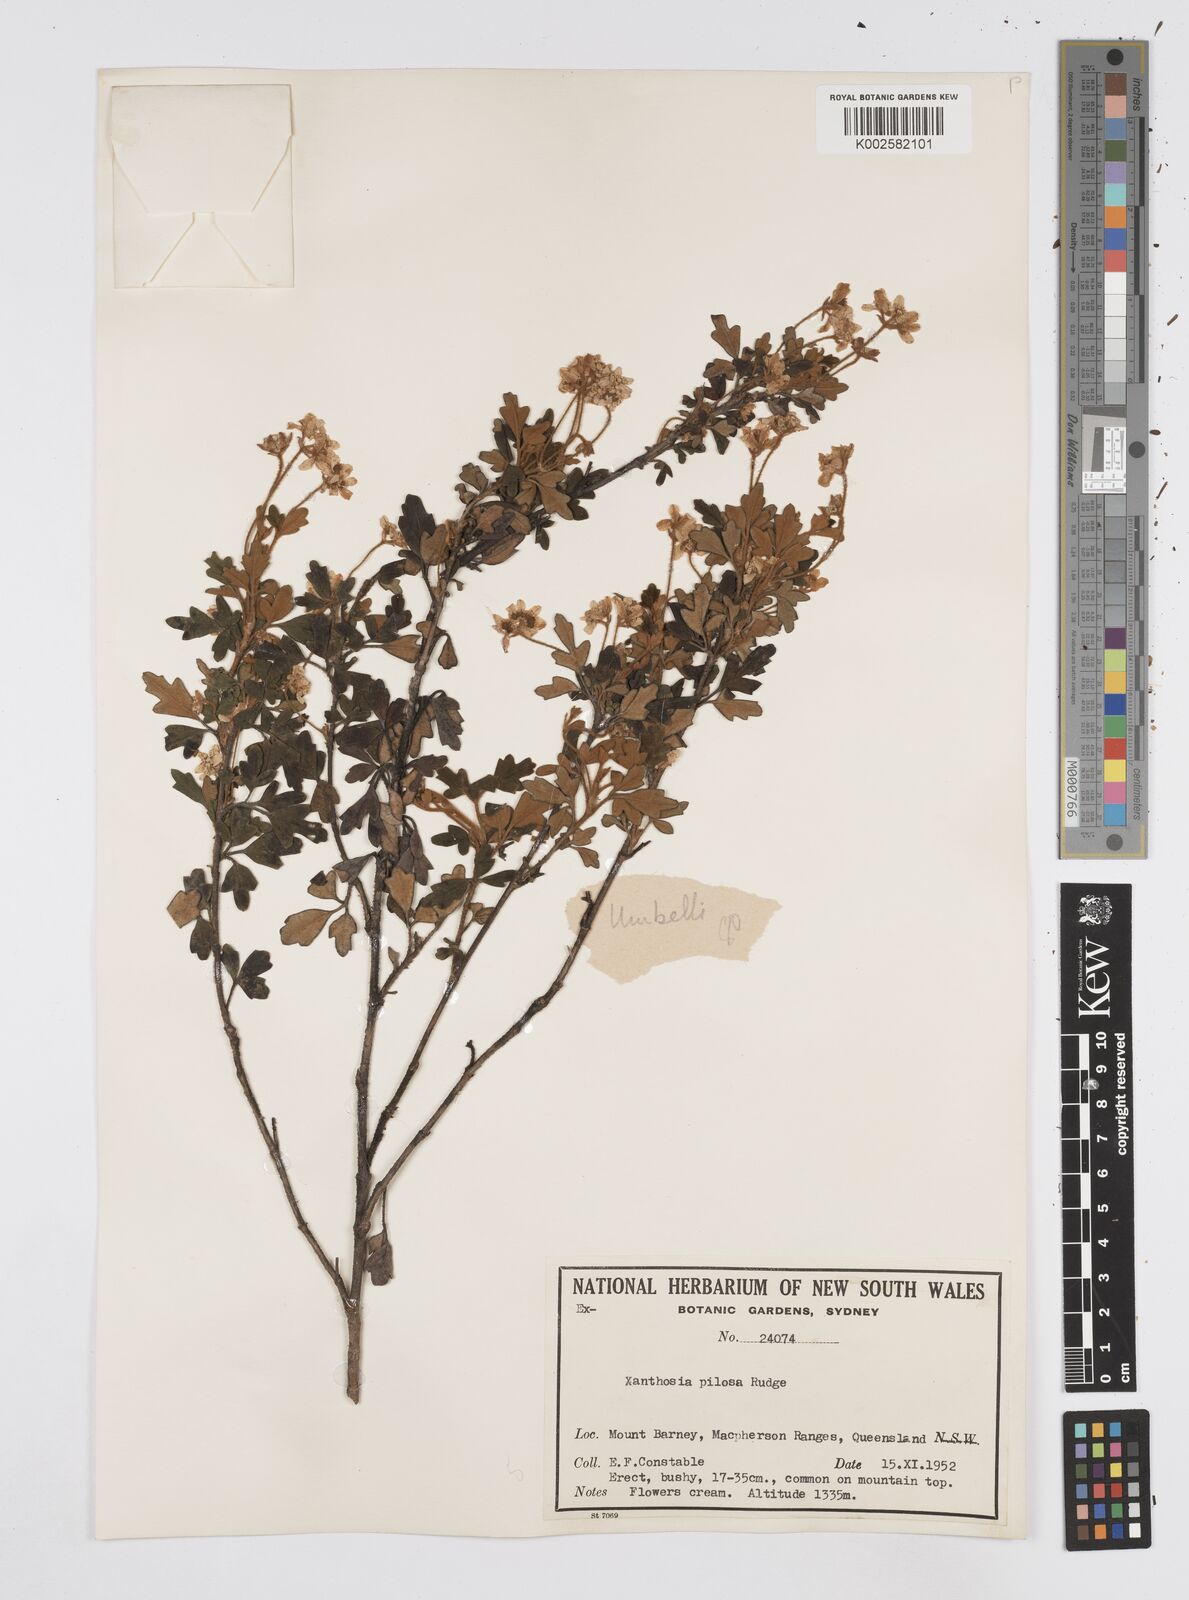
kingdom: Plantae
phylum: Tracheophyta
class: Magnoliopsida
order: Apiales
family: Apiaceae
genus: Xanthosia
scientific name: Xanthosia pilosa
